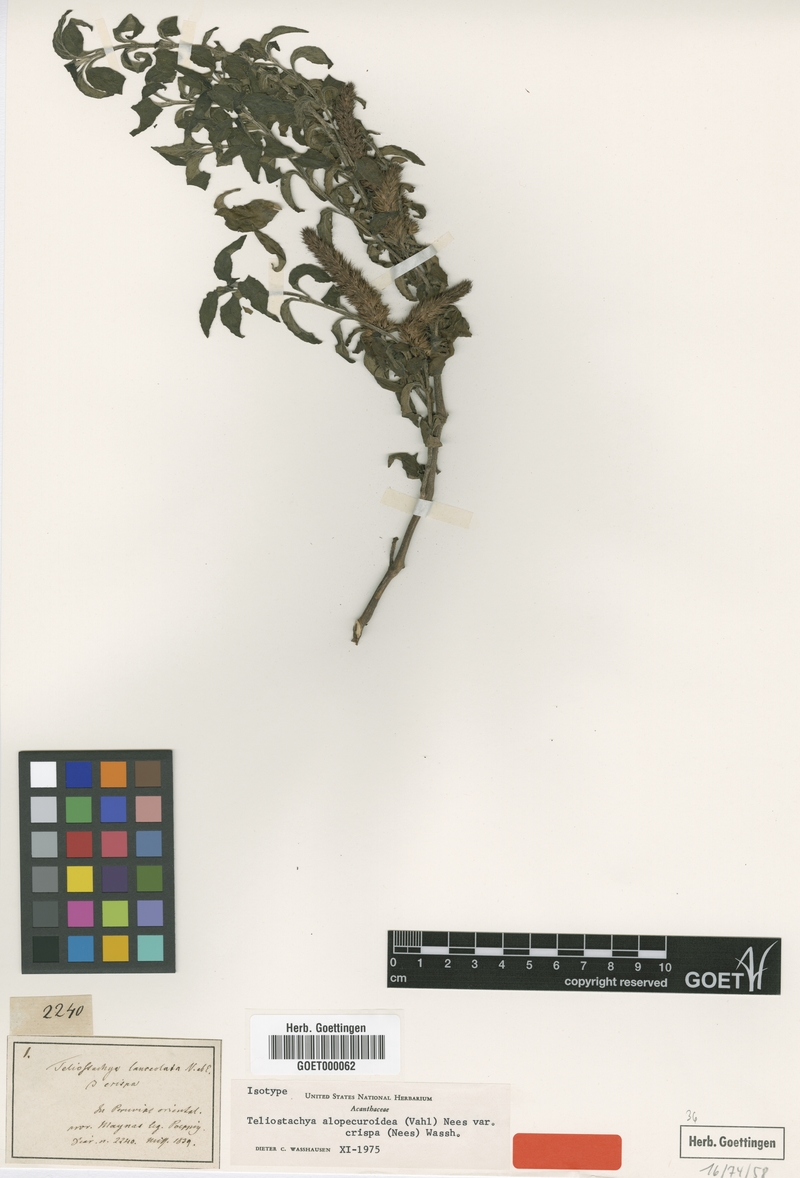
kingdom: Plantae
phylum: Tracheophyta
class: Magnoliopsida
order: Lamiales
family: Acanthaceae
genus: Lepidagathis
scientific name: Lepidagathis alopecuroidea
